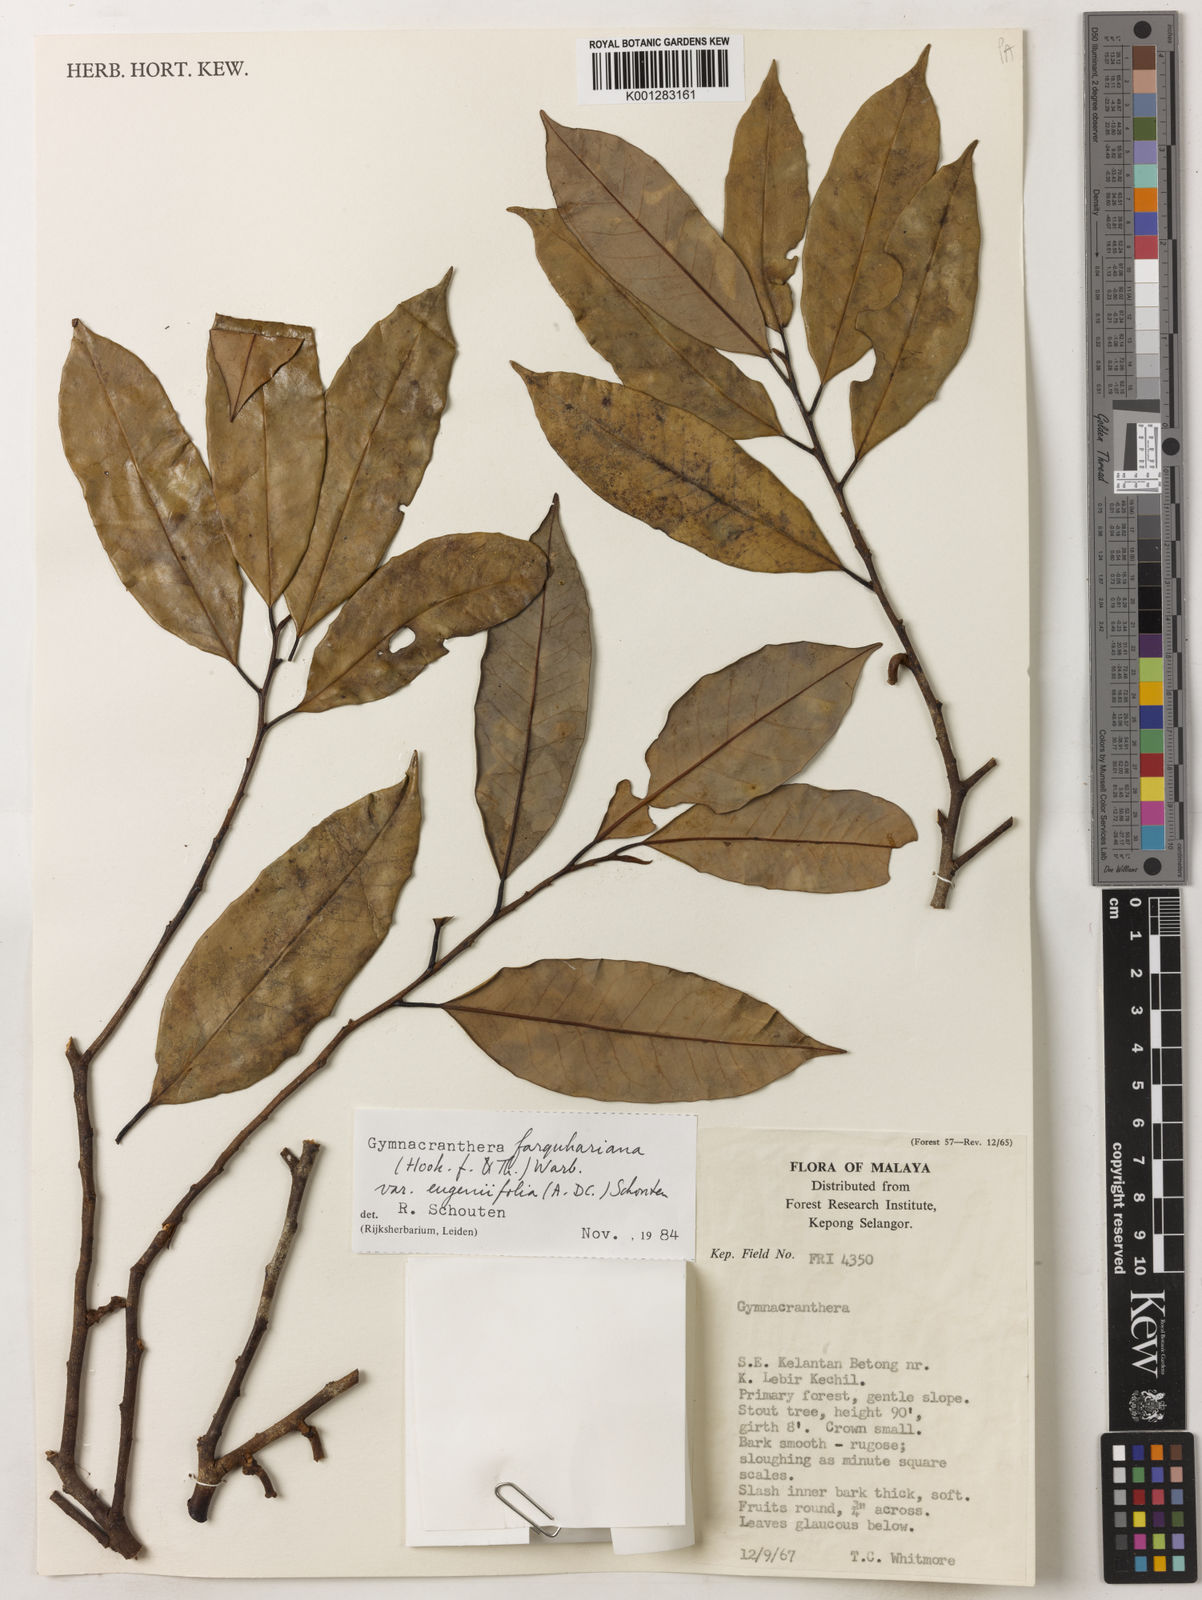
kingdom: Plantae
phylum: Tracheophyta
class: Magnoliopsida
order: Magnoliales
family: Myristicaceae
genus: Gymnacranthera
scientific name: Gymnacranthera farquhariana
